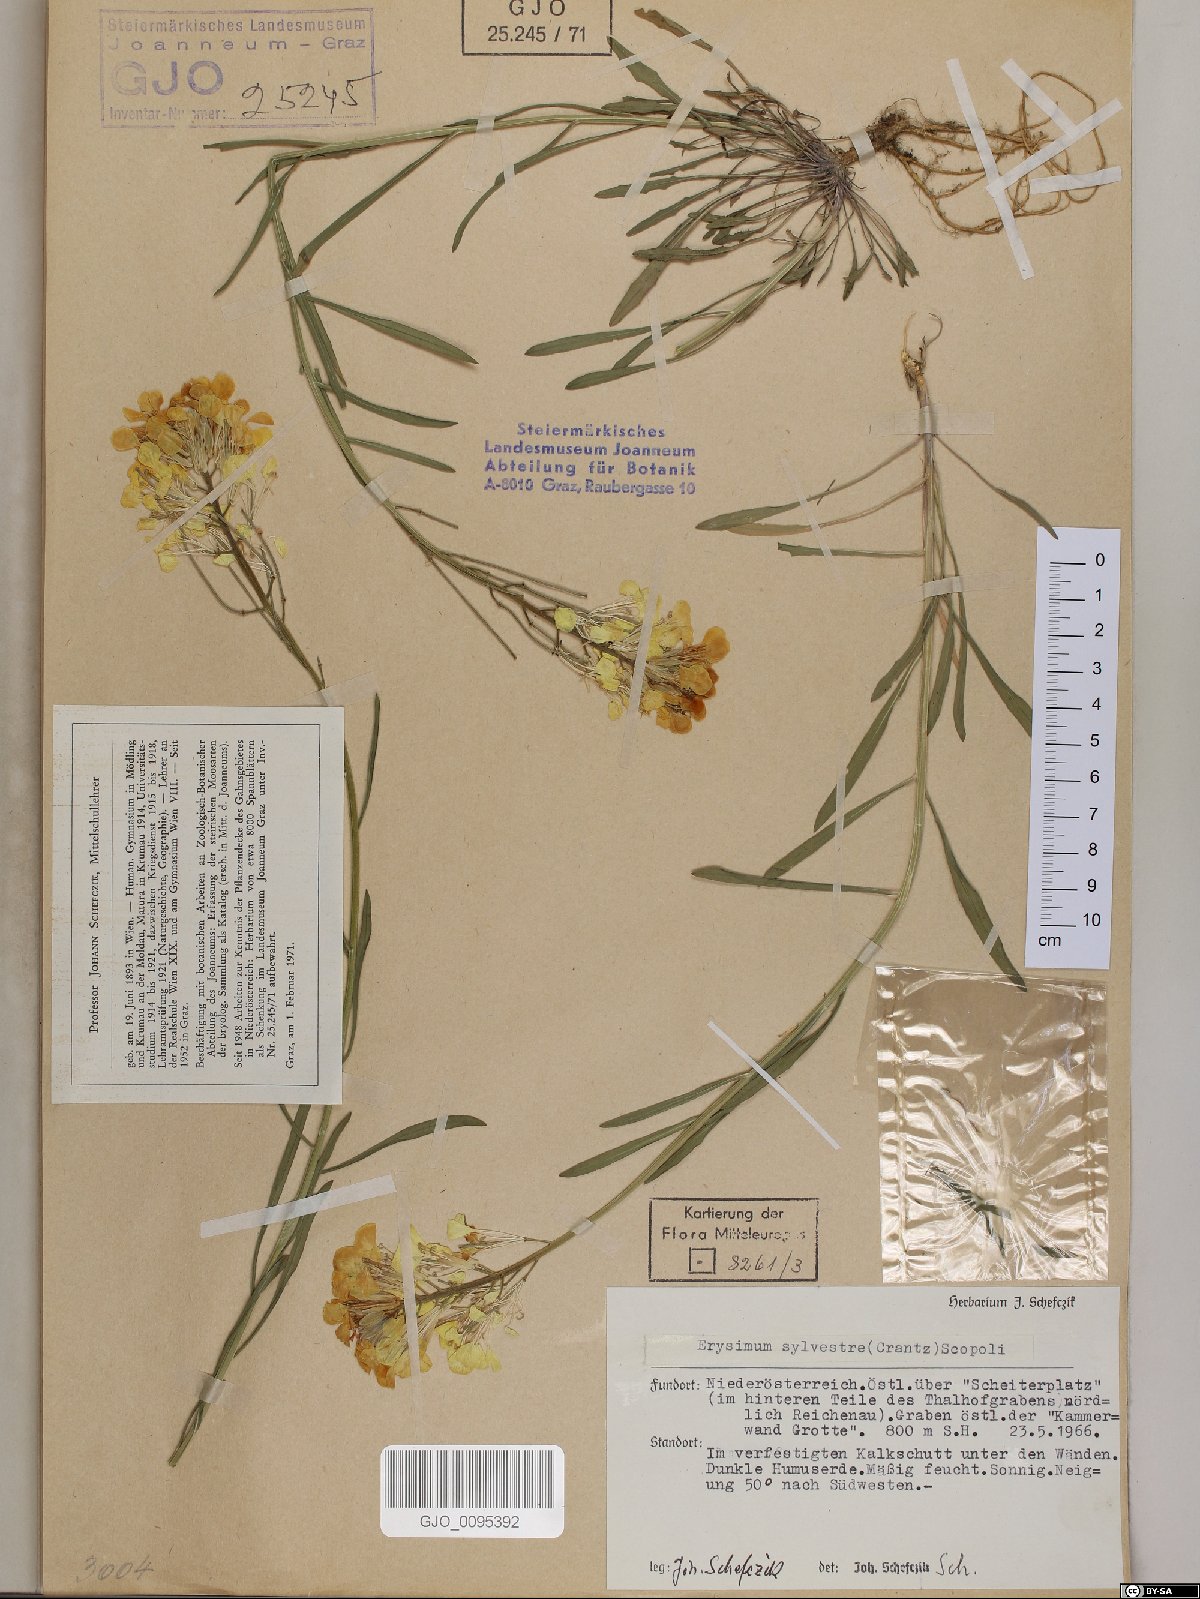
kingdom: Plantae
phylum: Tracheophyta
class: Magnoliopsida
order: Brassicales
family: Brassicaceae
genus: Erysimum
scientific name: Erysimum sylvestre
